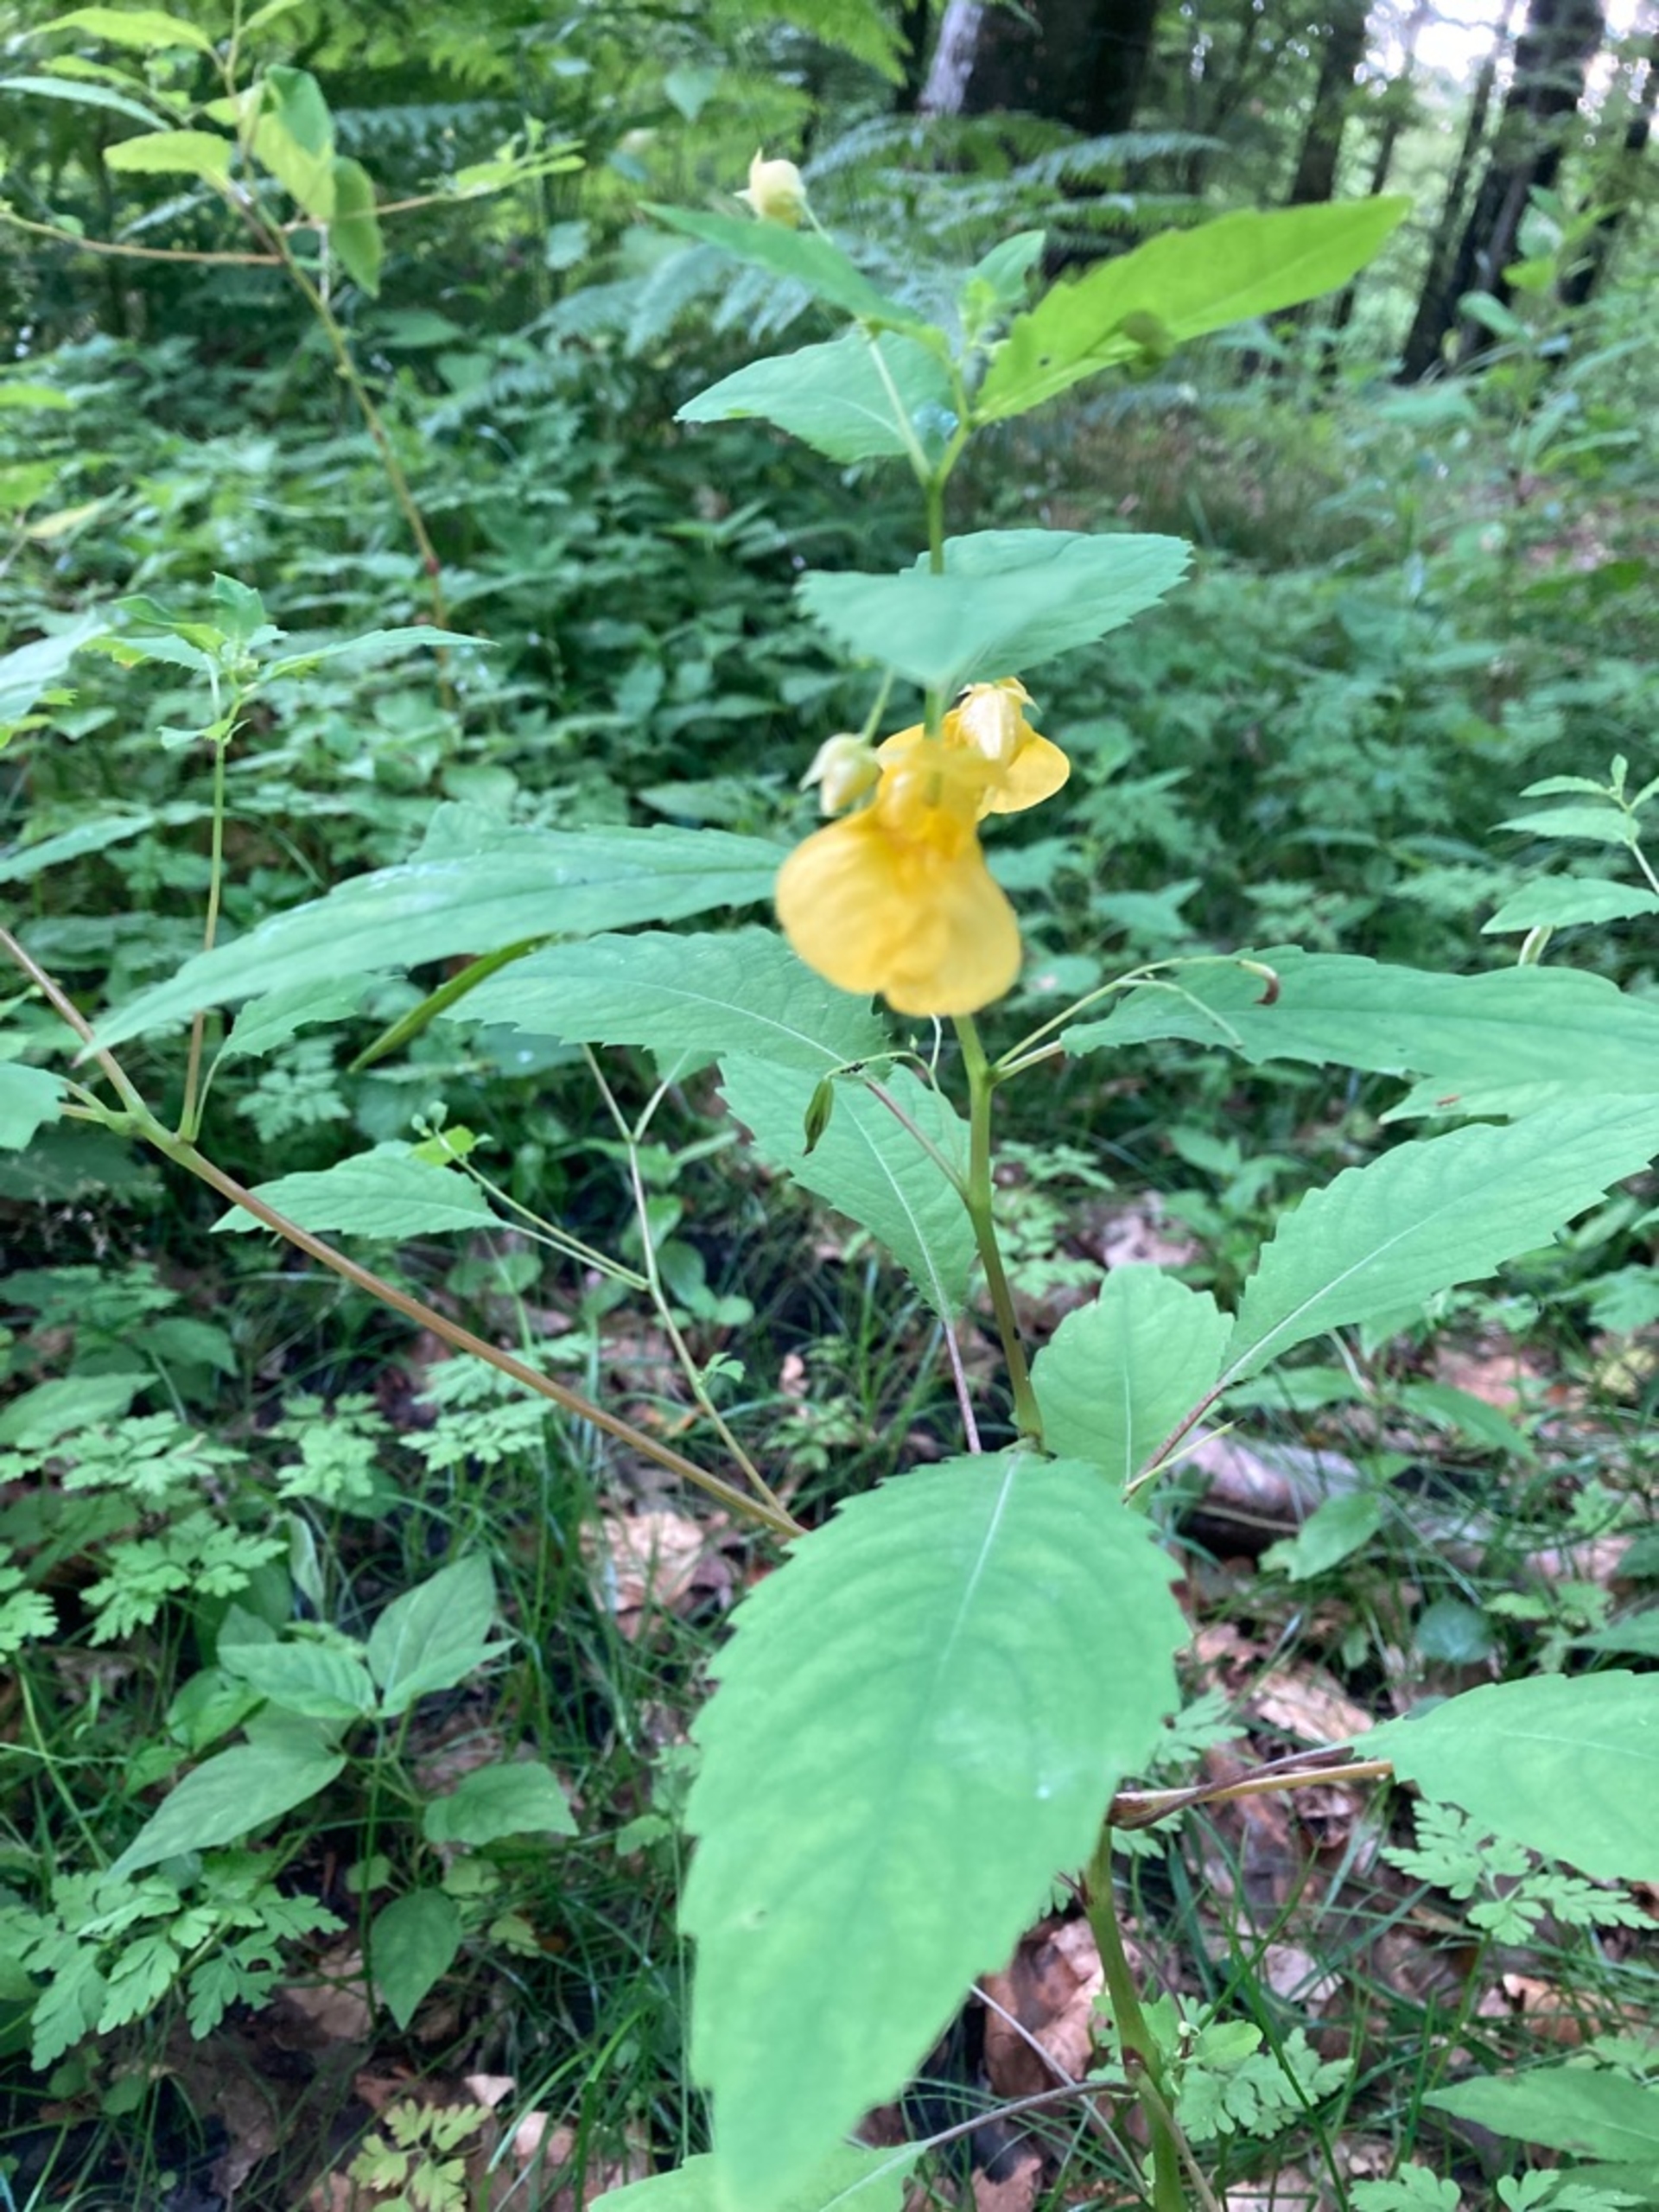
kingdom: Plantae
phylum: Tracheophyta
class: Magnoliopsida
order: Ericales
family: Balsaminaceae
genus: Impatiens
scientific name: Impatiens noli-tangere
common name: Spring-balsamin
